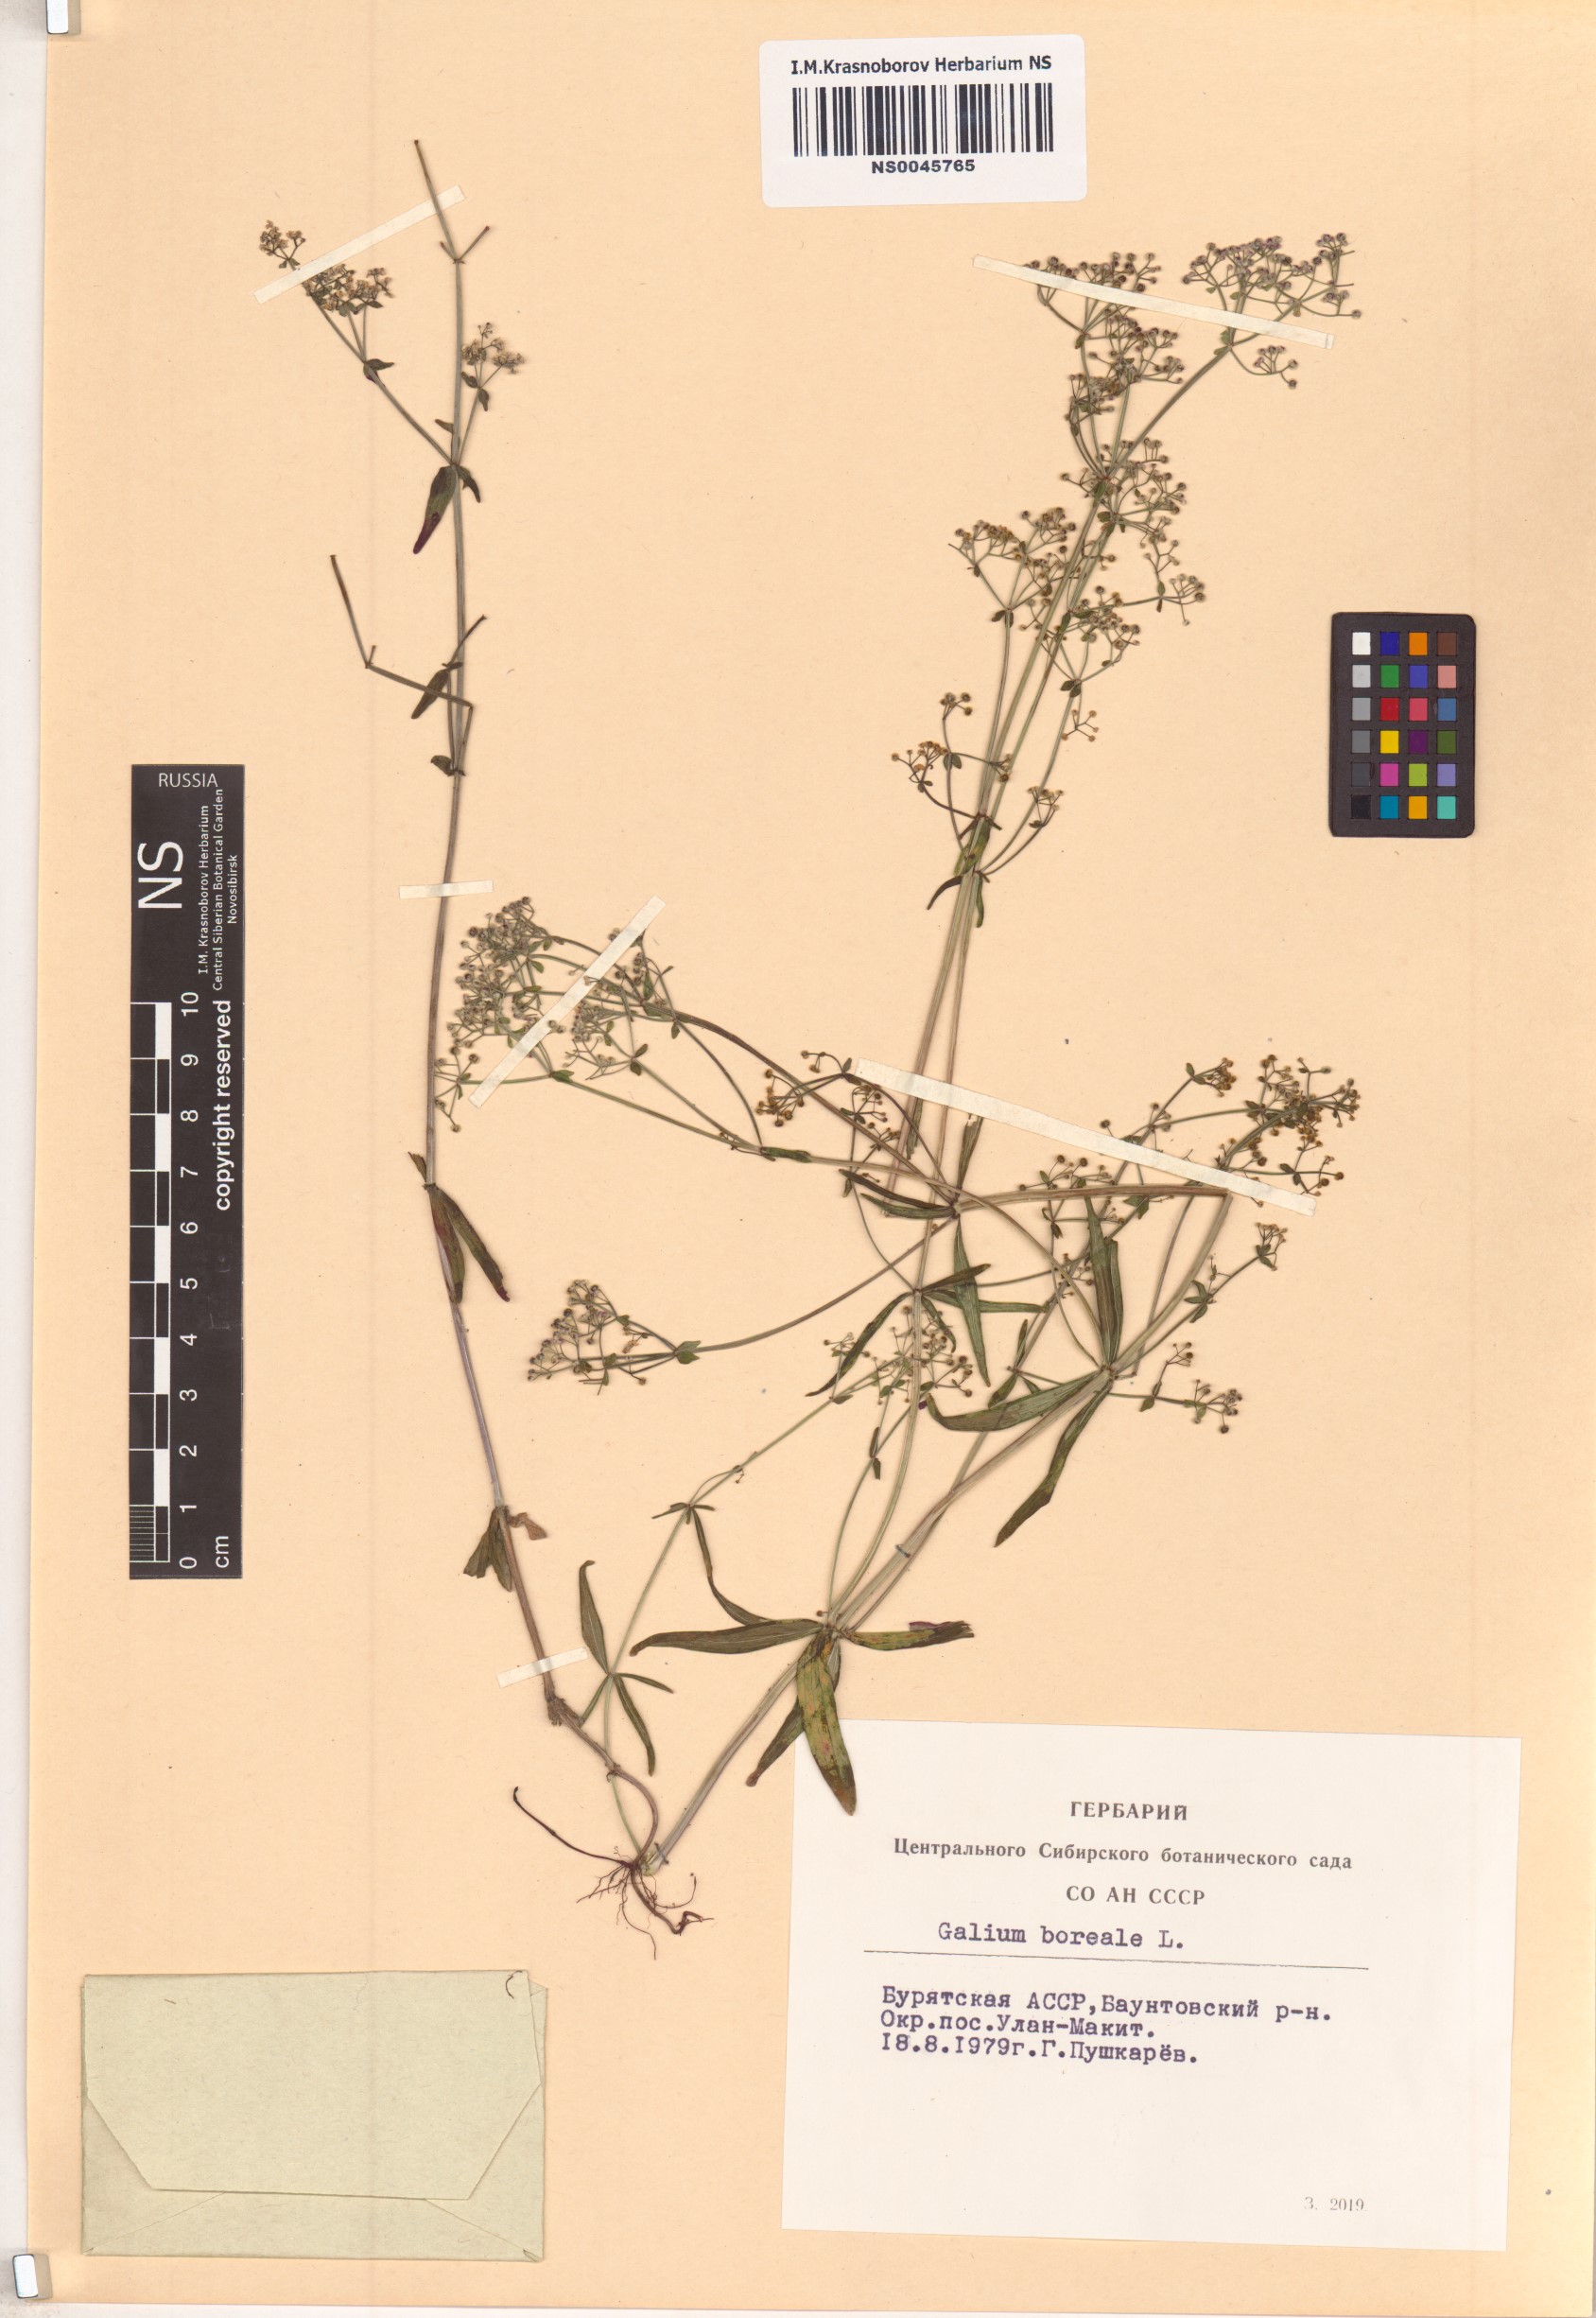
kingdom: Plantae
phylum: Tracheophyta
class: Magnoliopsida
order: Gentianales
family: Rubiaceae
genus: Galium
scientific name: Galium boreale
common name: Northern bedstraw
